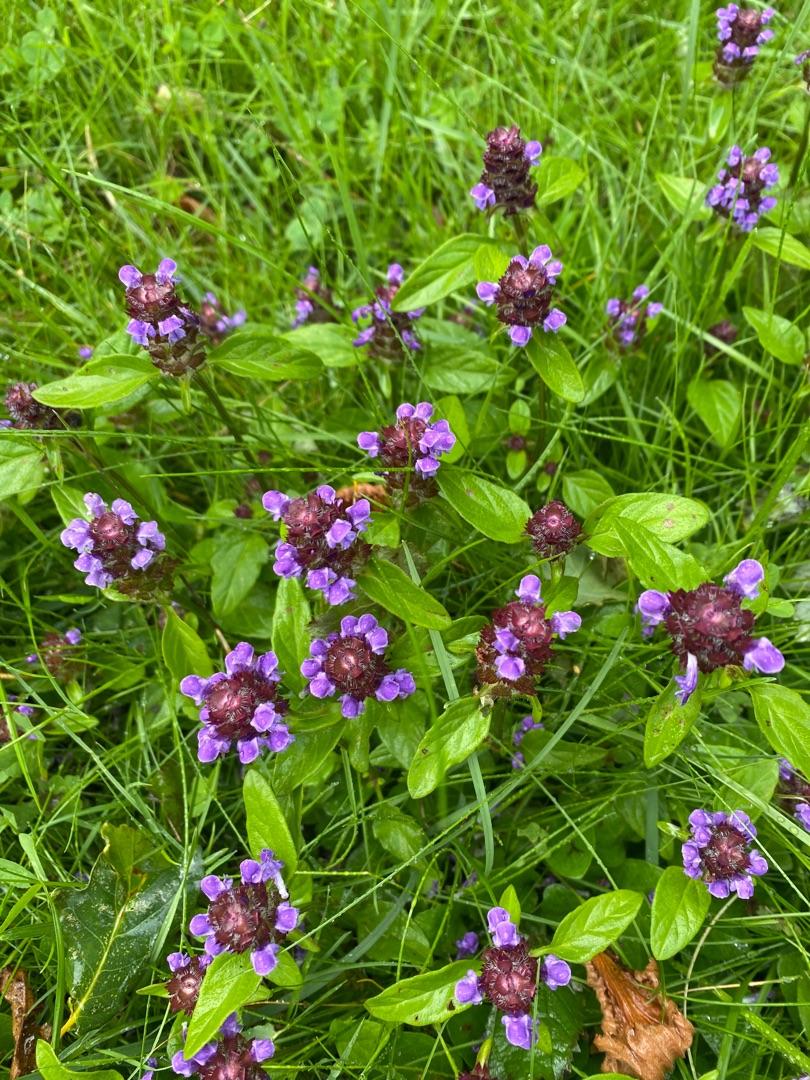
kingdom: Plantae
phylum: Tracheophyta
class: Magnoliopsida
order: Lamiales
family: Lamiaceae
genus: Prunella
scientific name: Prunella vulgaris
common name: Almindelig brunelle
